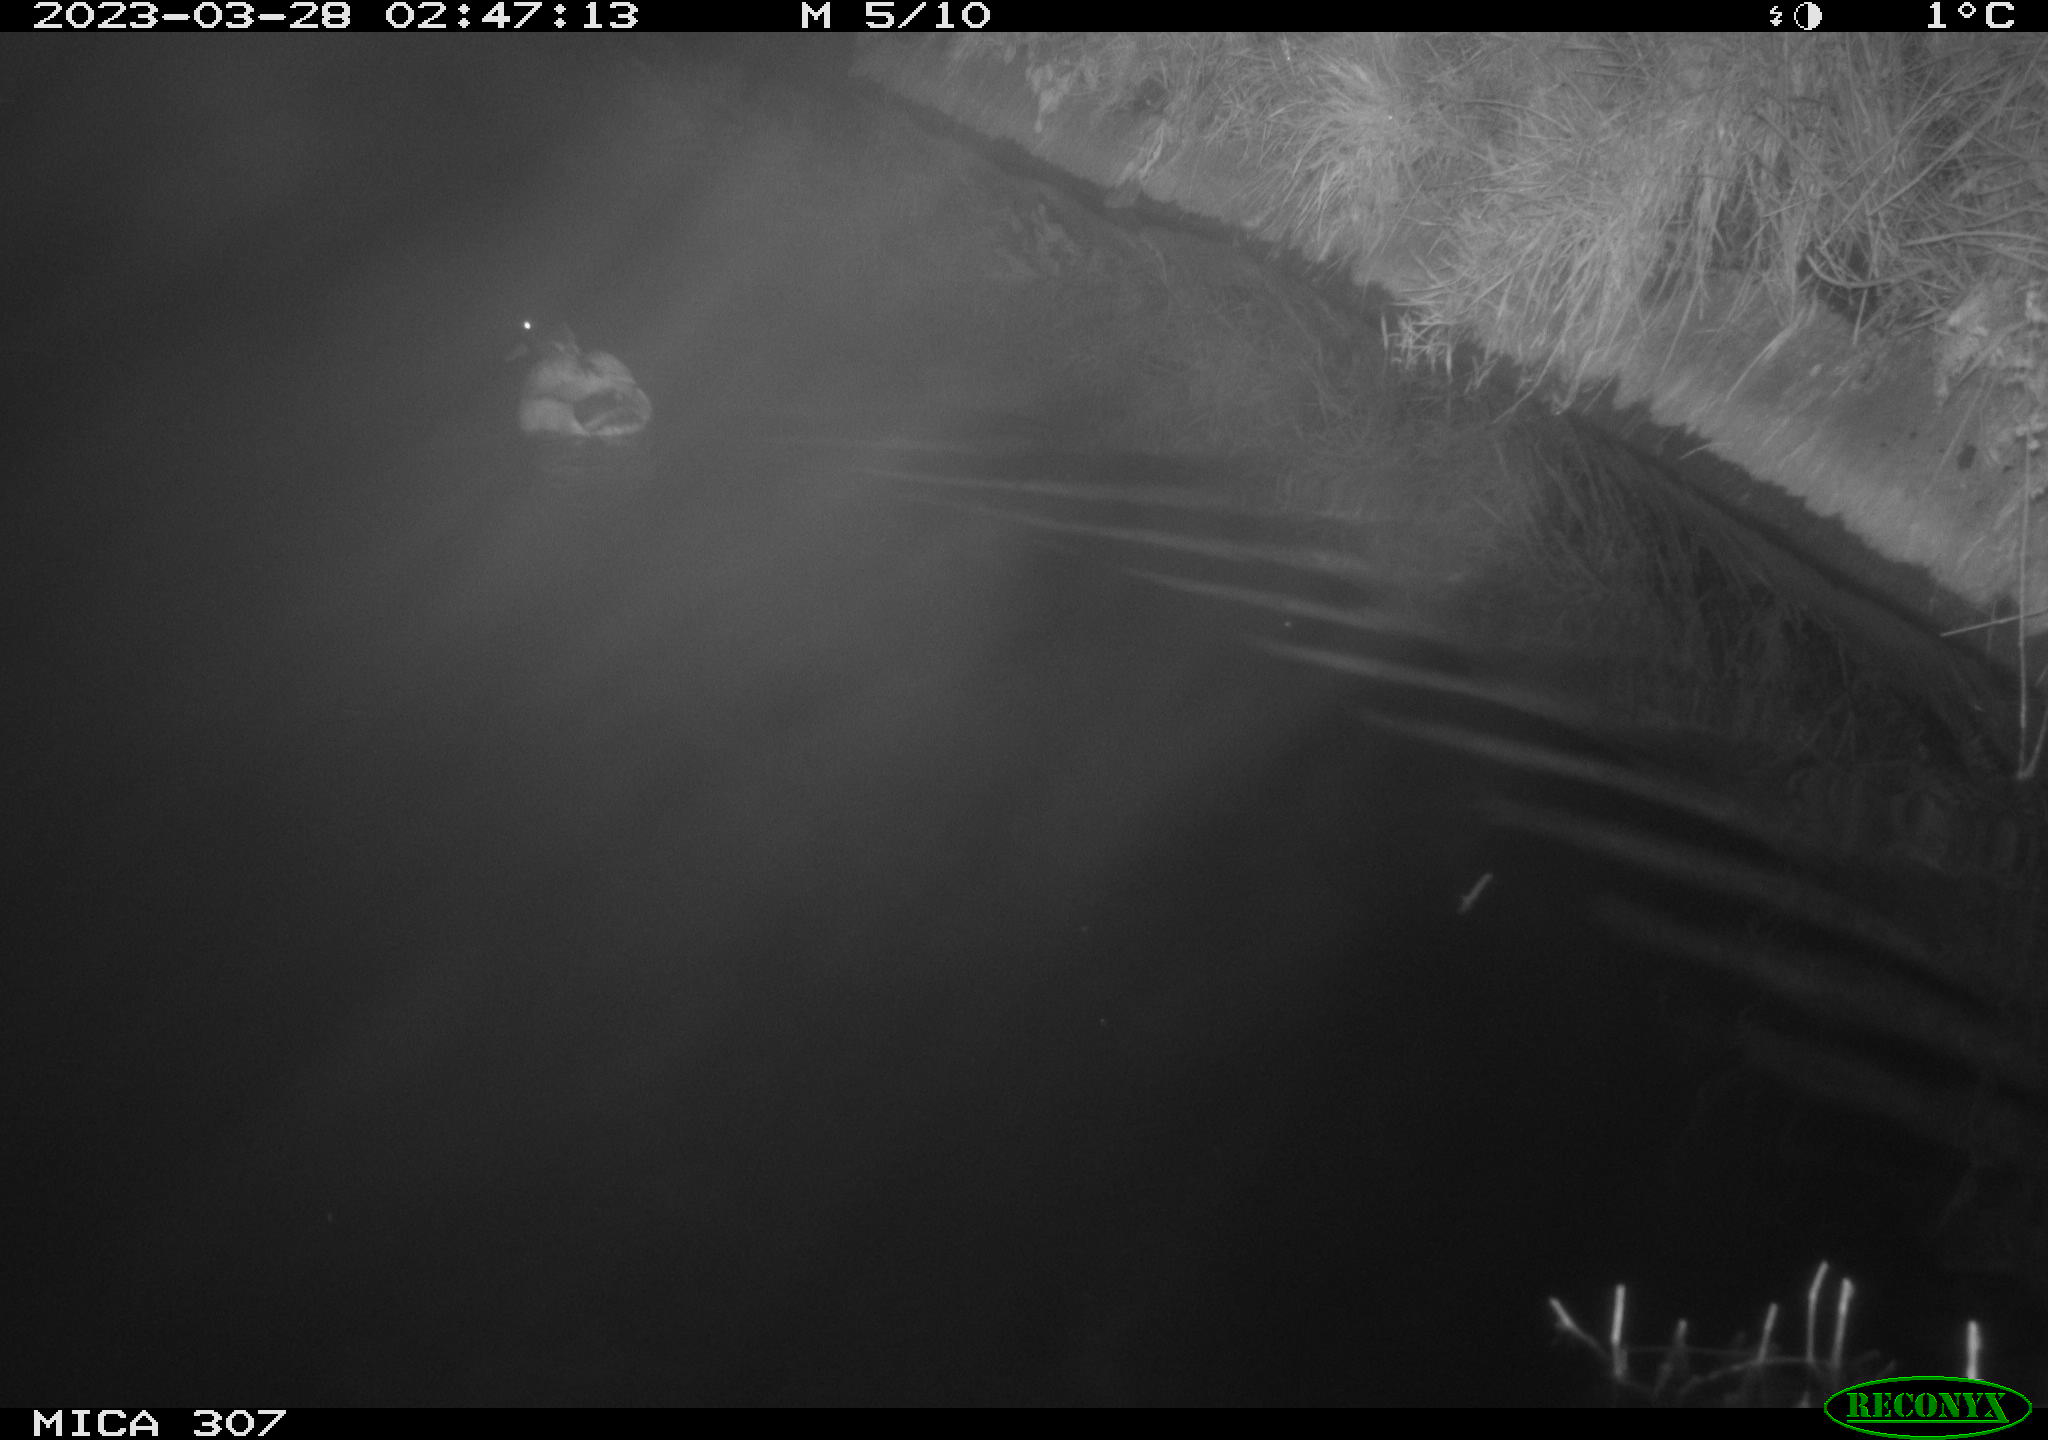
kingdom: Animalia
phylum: Chordata
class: Aves
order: Anseriformes
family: Anatidae
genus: Anas
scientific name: Anas
